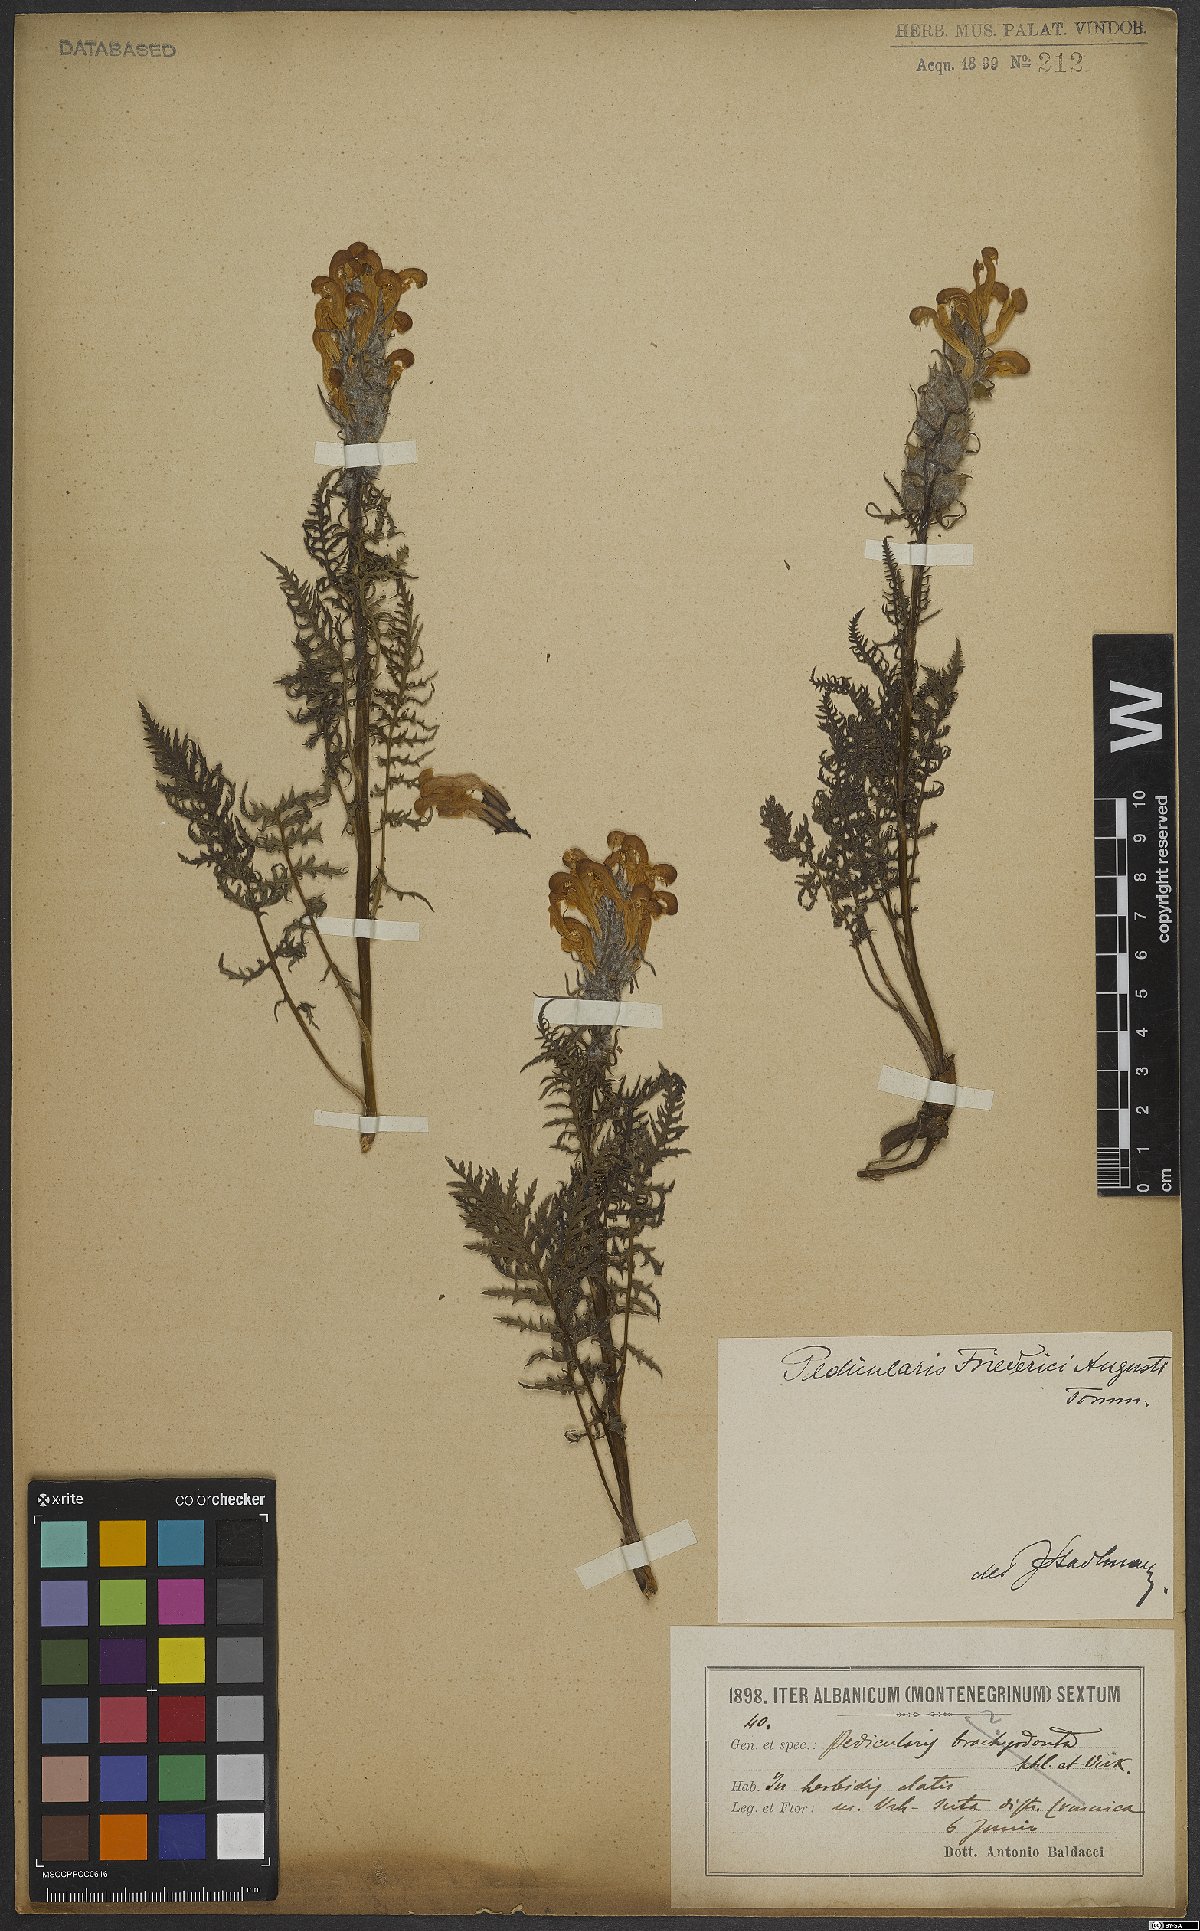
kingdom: Plantae
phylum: Tracheophyta
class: Magnoliopsida
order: Lamiales
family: Orobanchaceae
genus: Pedicularis
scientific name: Pedicularis friderici-augusti
